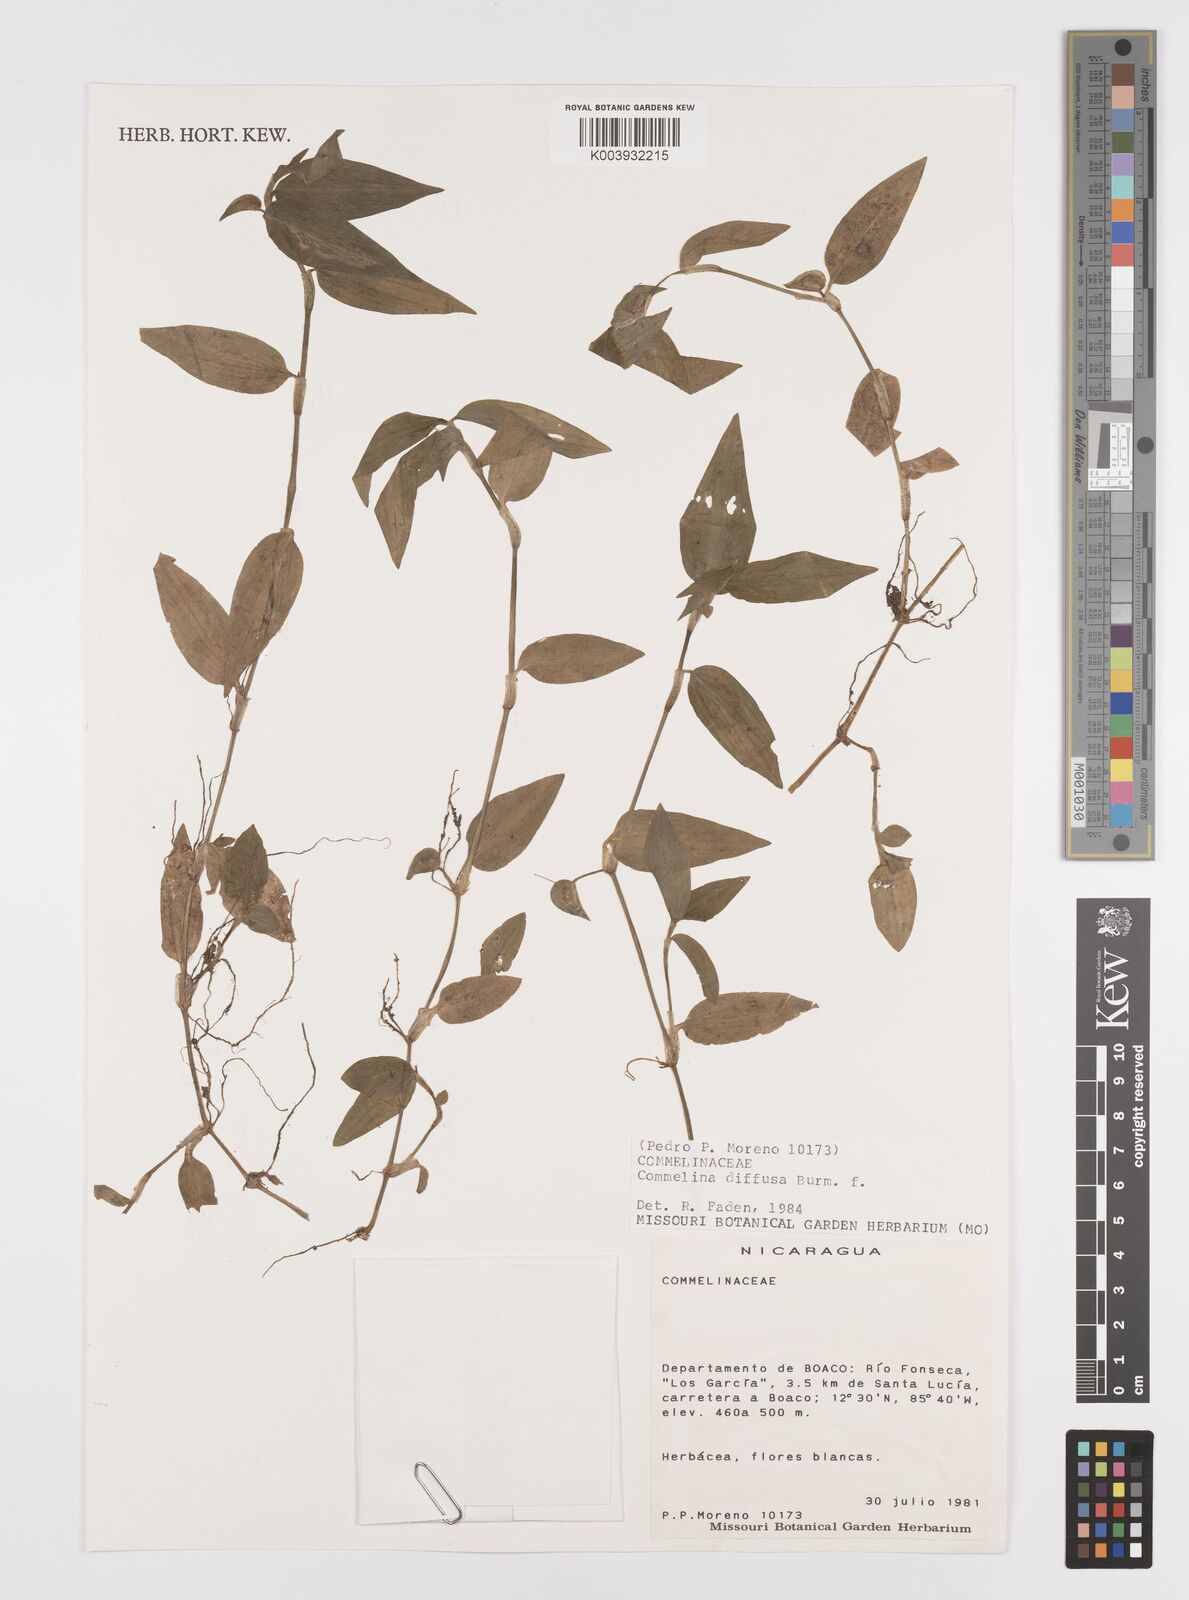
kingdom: Plantae
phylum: Tracheophyta
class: Liliopsida
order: Commelinales
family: Commelinaceae
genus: Commelina
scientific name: Commelina diffusa
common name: Climbing dayflower
